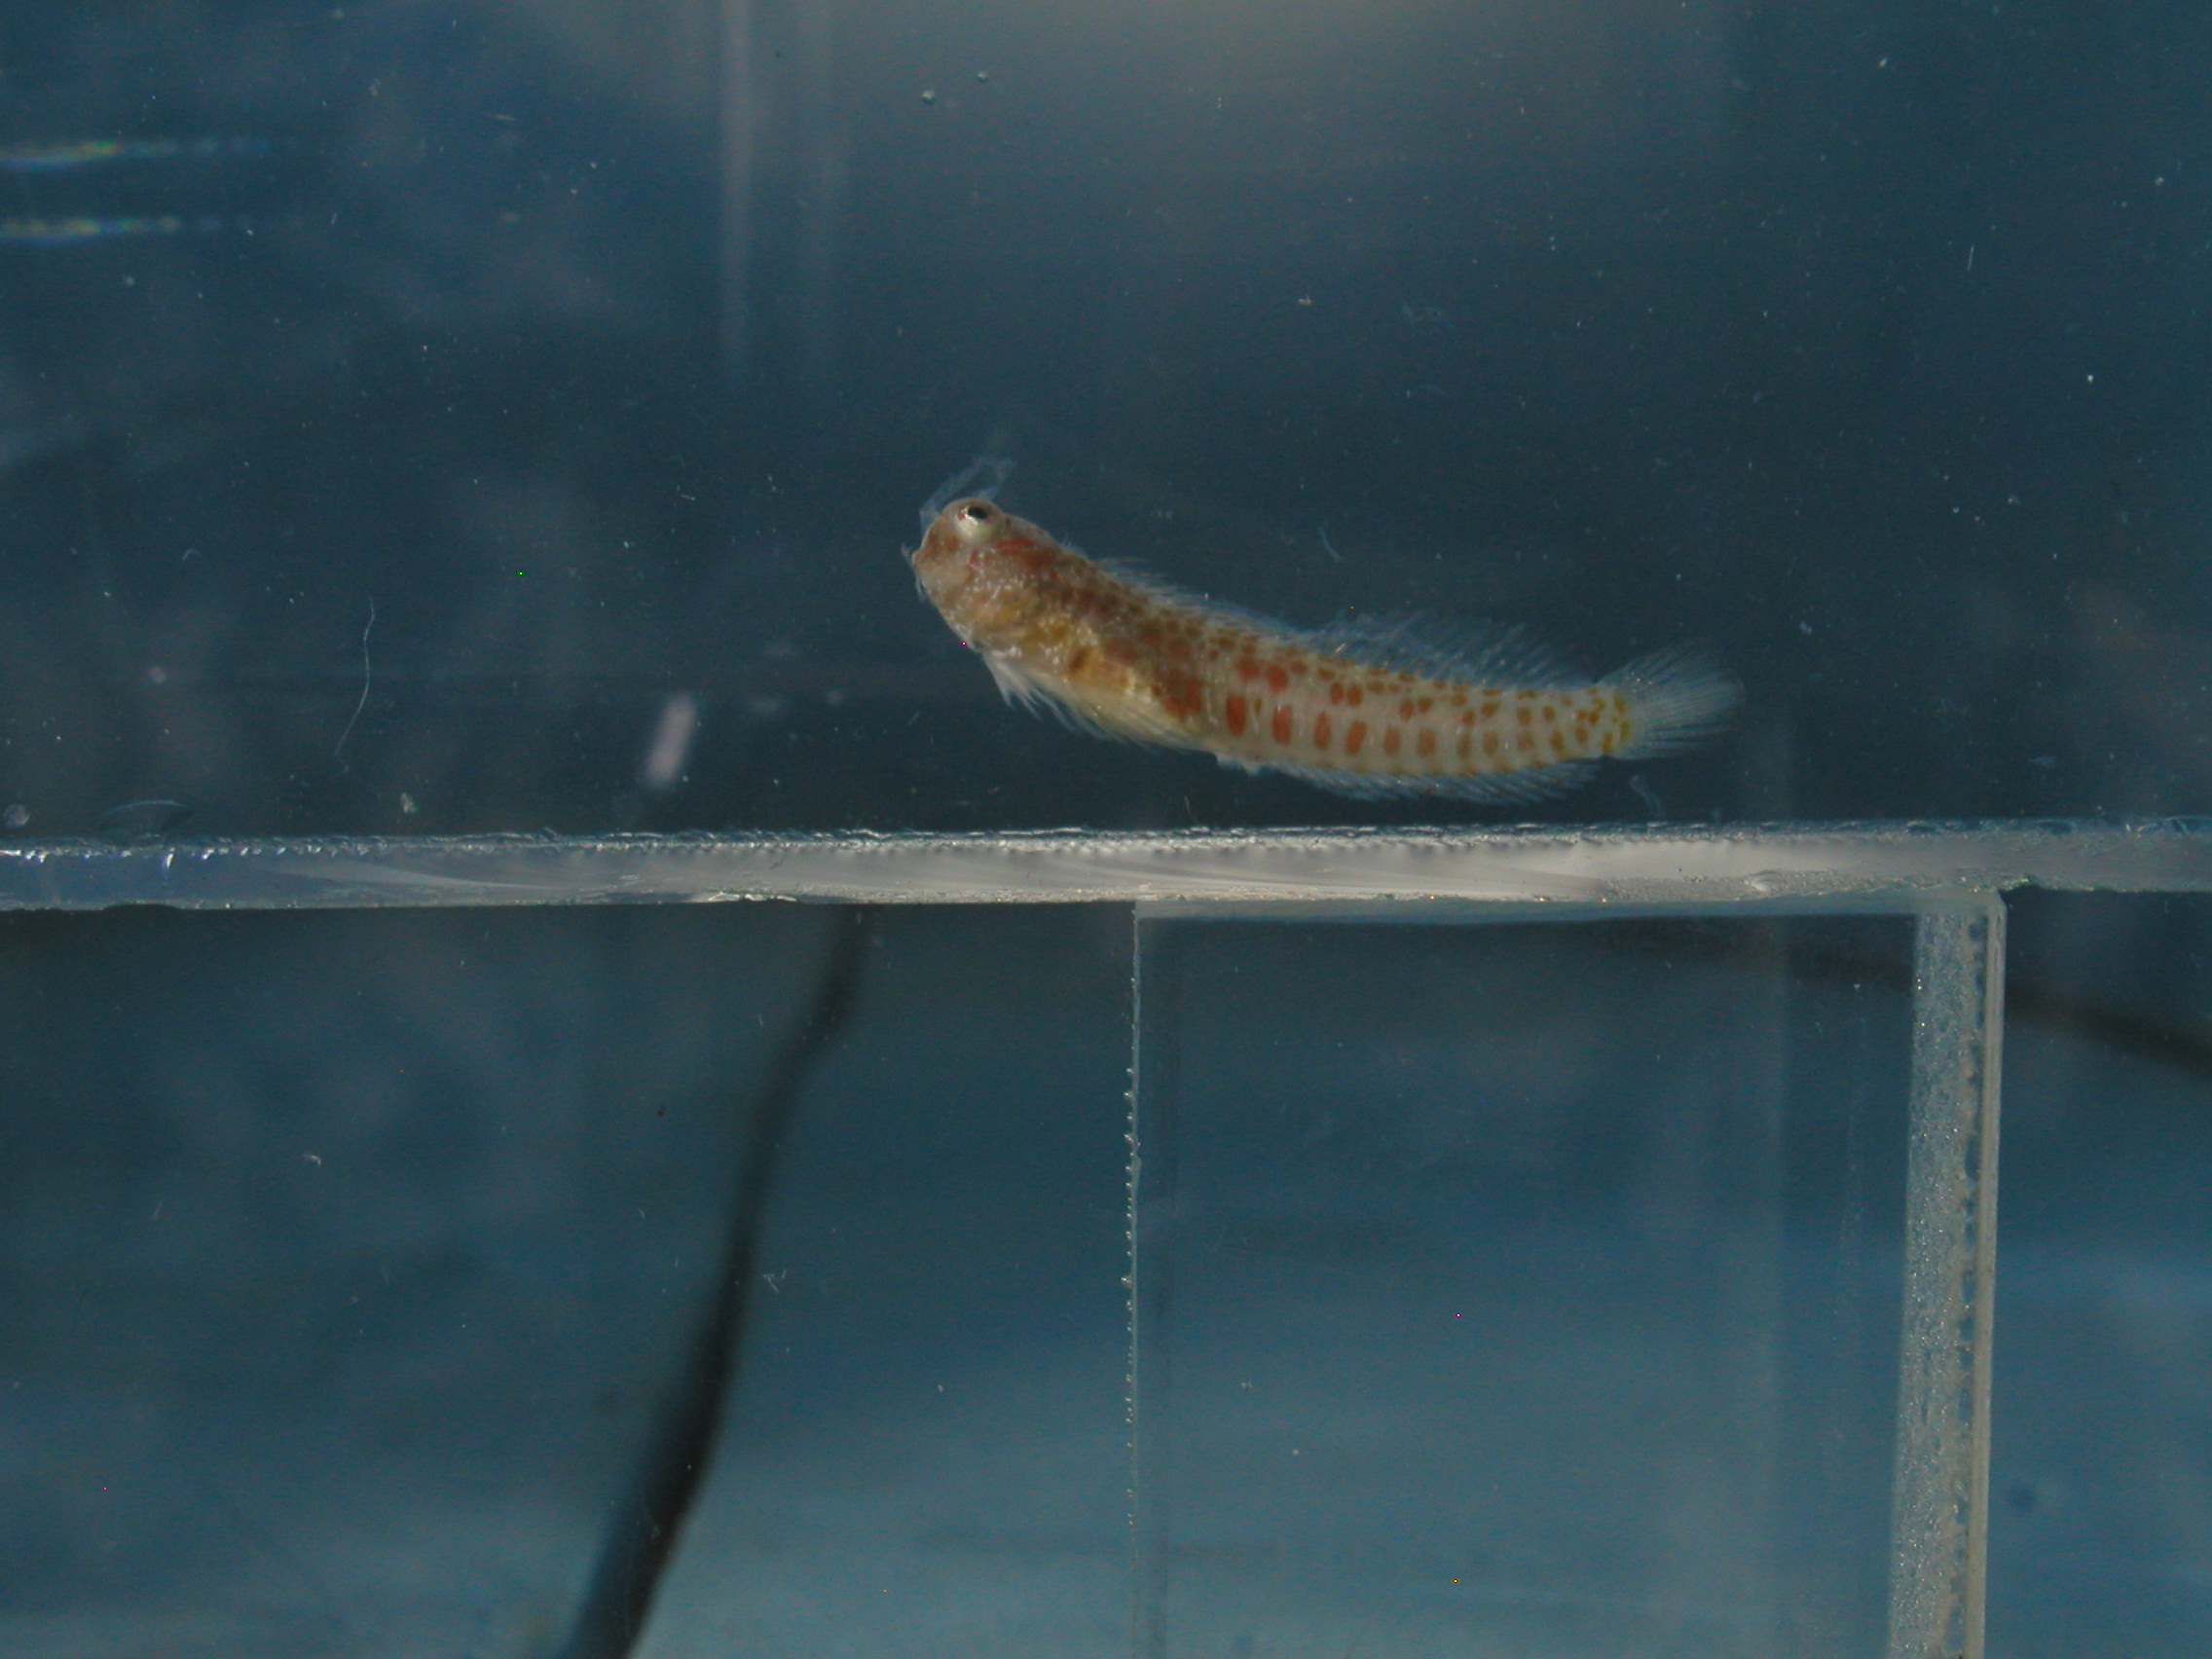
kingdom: Animalia
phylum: Chordata
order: Perciformes
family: Blenniidae
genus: Blenniella
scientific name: Blenniella chrysospilos
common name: Orange-spotted blenny
